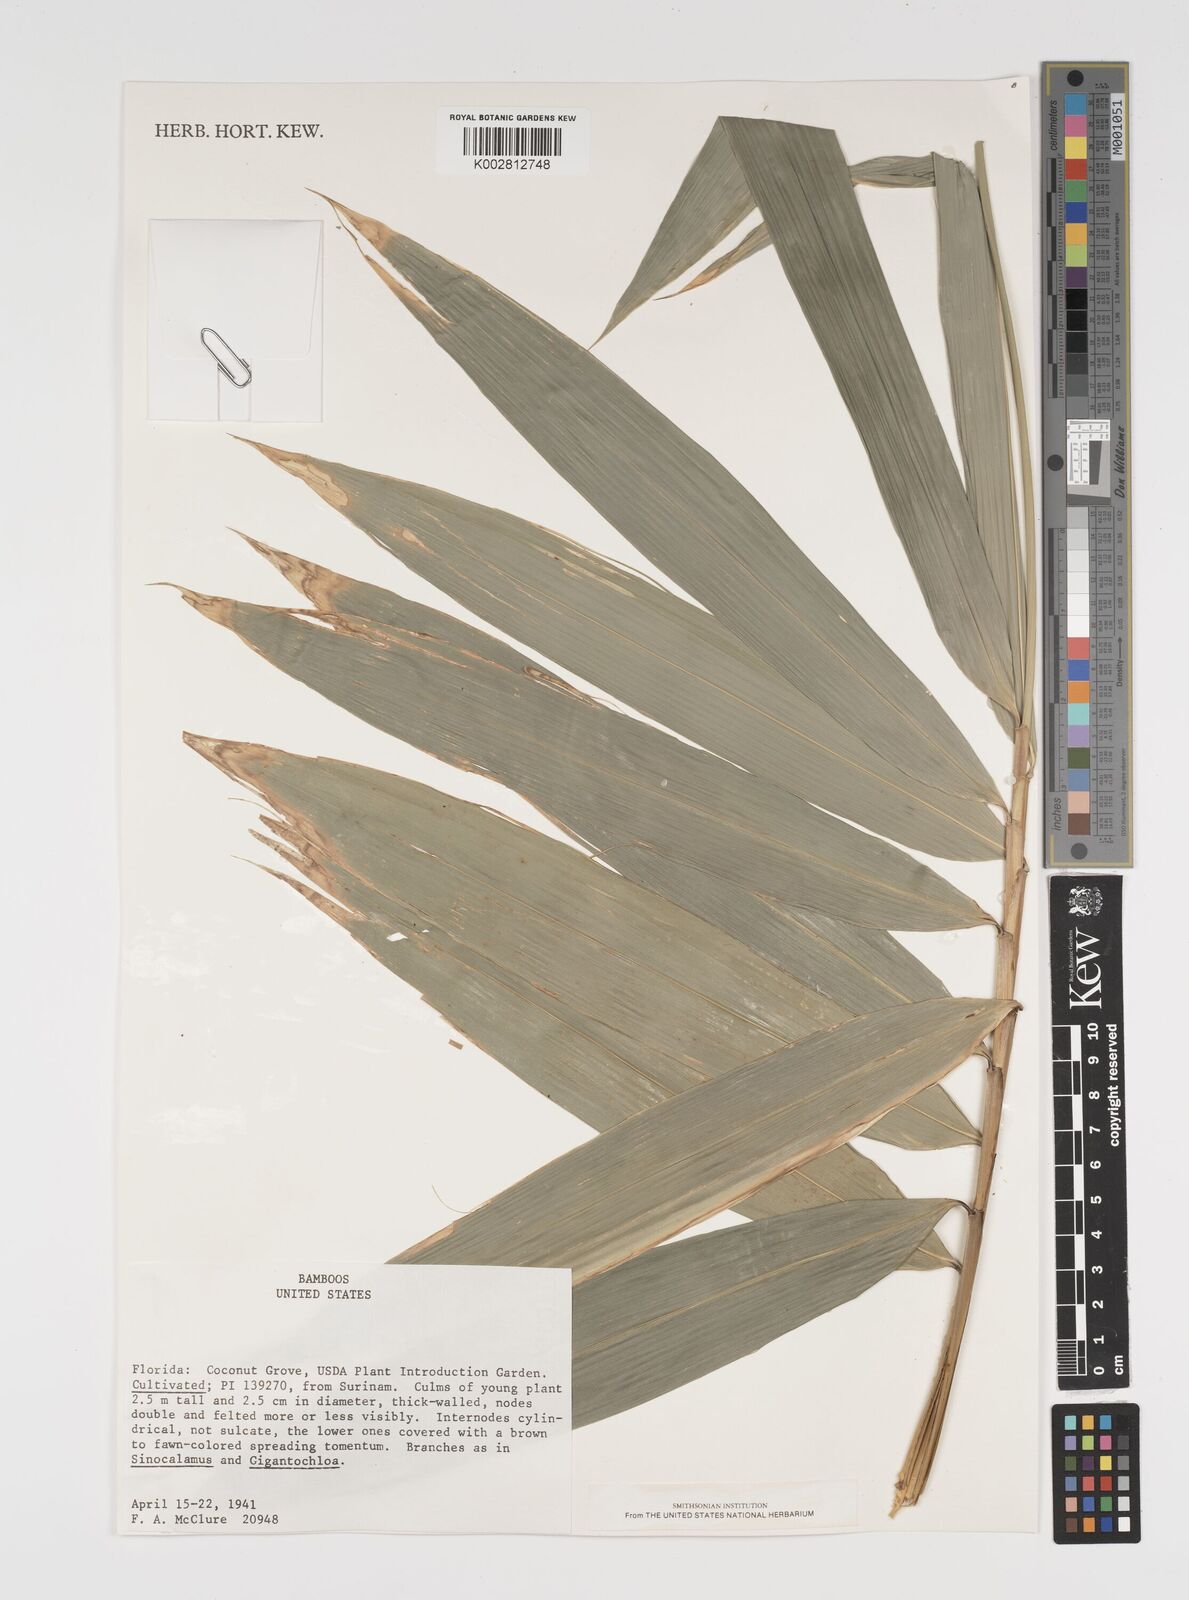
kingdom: Plantae
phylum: Tracheophyta
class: Liliopsida
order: Poales
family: Poaceae
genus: Arundinaria
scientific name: Arundinaria
